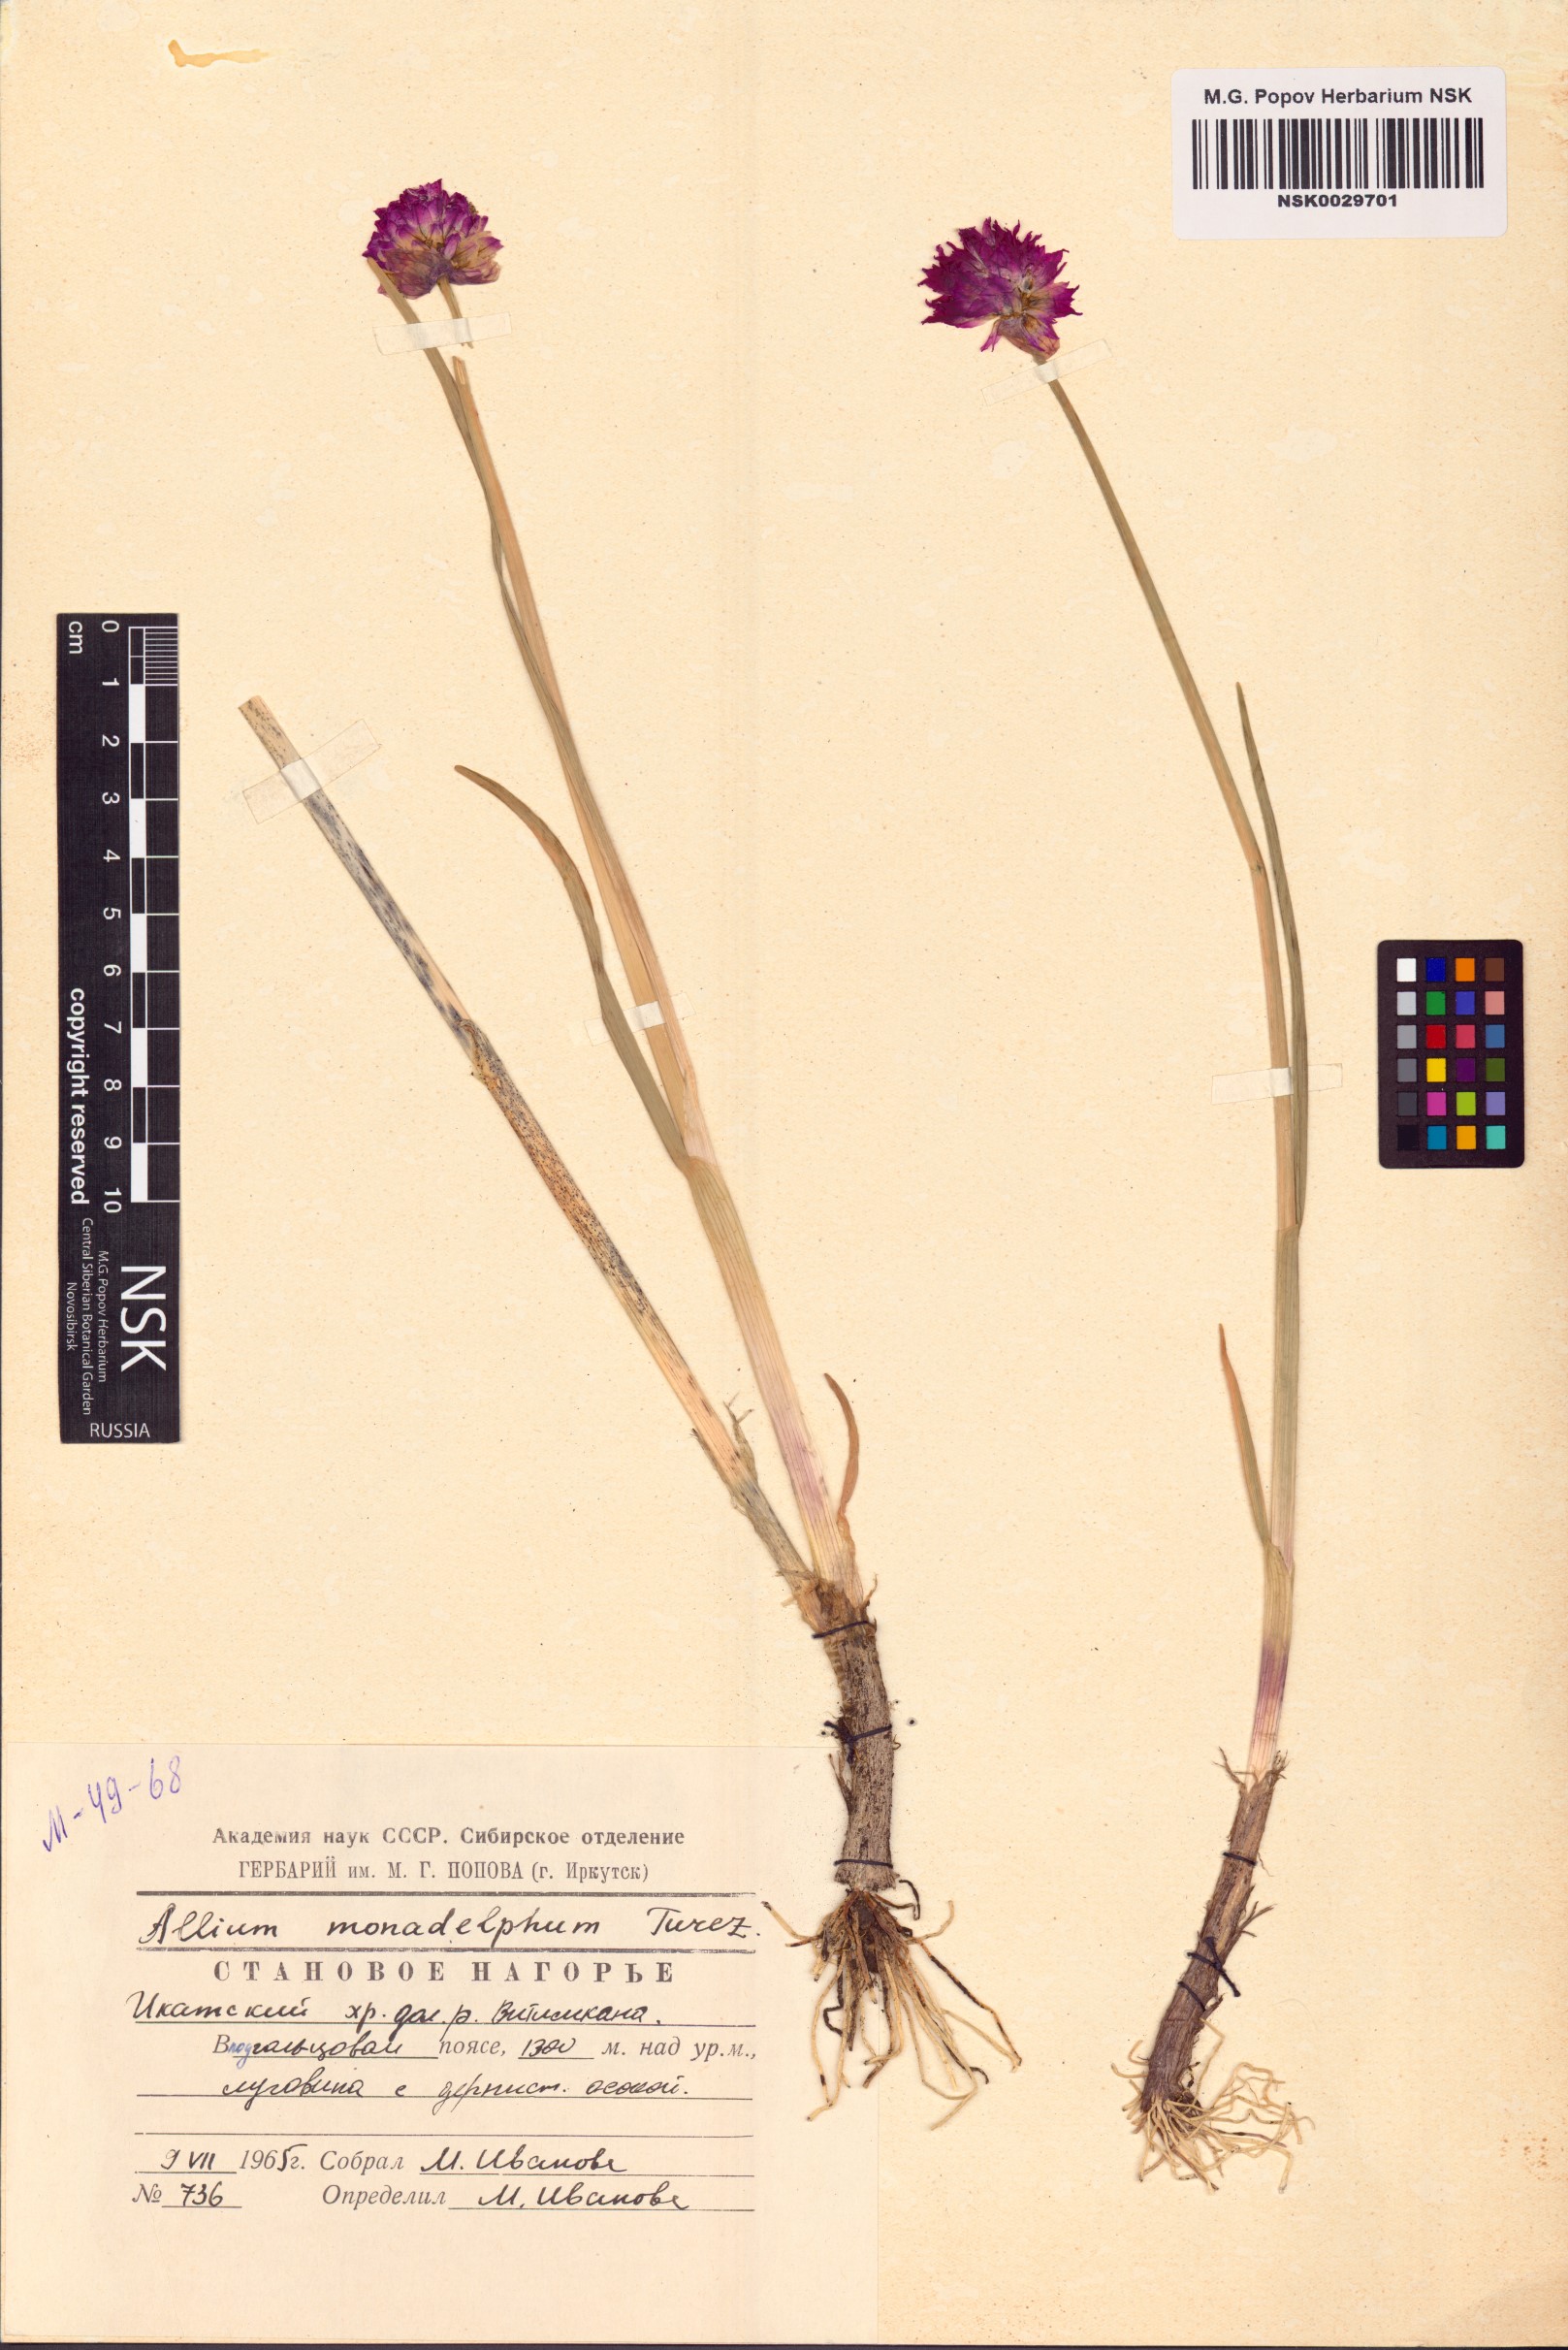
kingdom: Plantae
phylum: Tracheophyta
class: Liliopsida
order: Asparagales
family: Amaryllidaceae
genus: Allium
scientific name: Allium atrosanguineum
